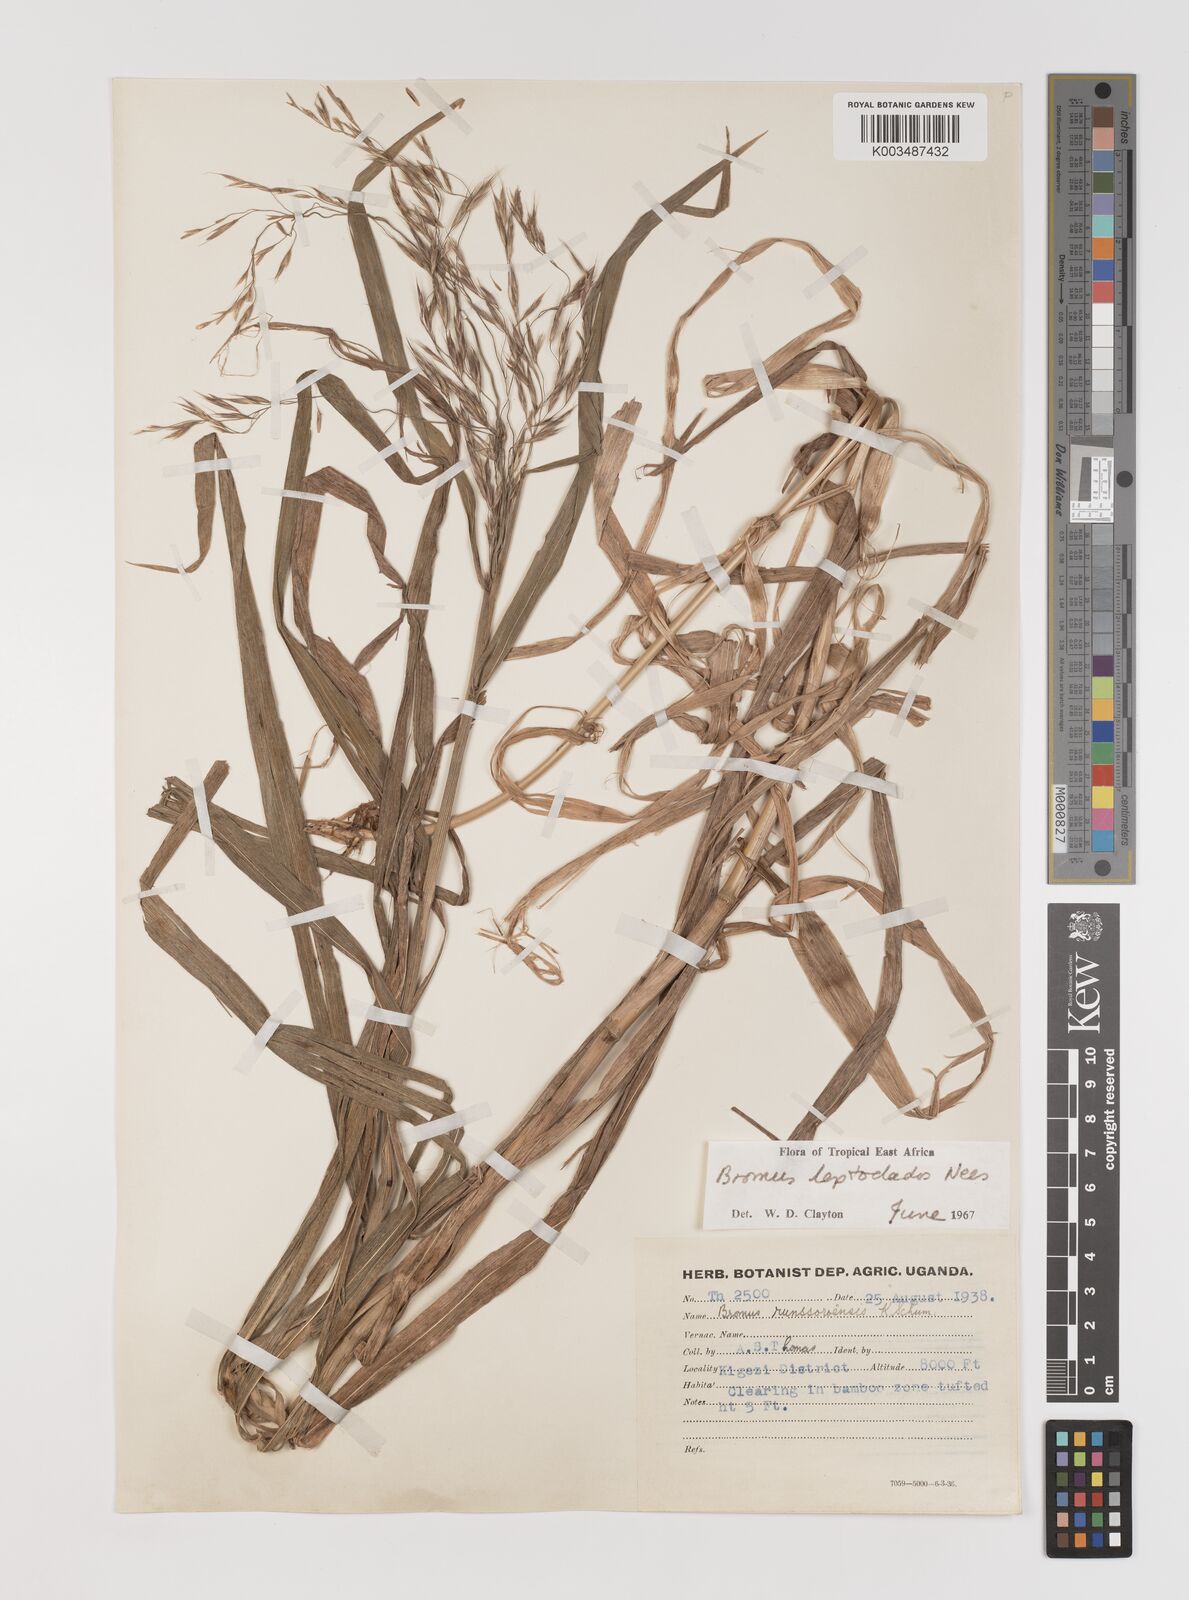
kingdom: Plantae
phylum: Tracheophyta
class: Liliopsida
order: Poales
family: Poaceae
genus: Bromus
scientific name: Bromus leptoclados
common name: Mountain bromegrass
